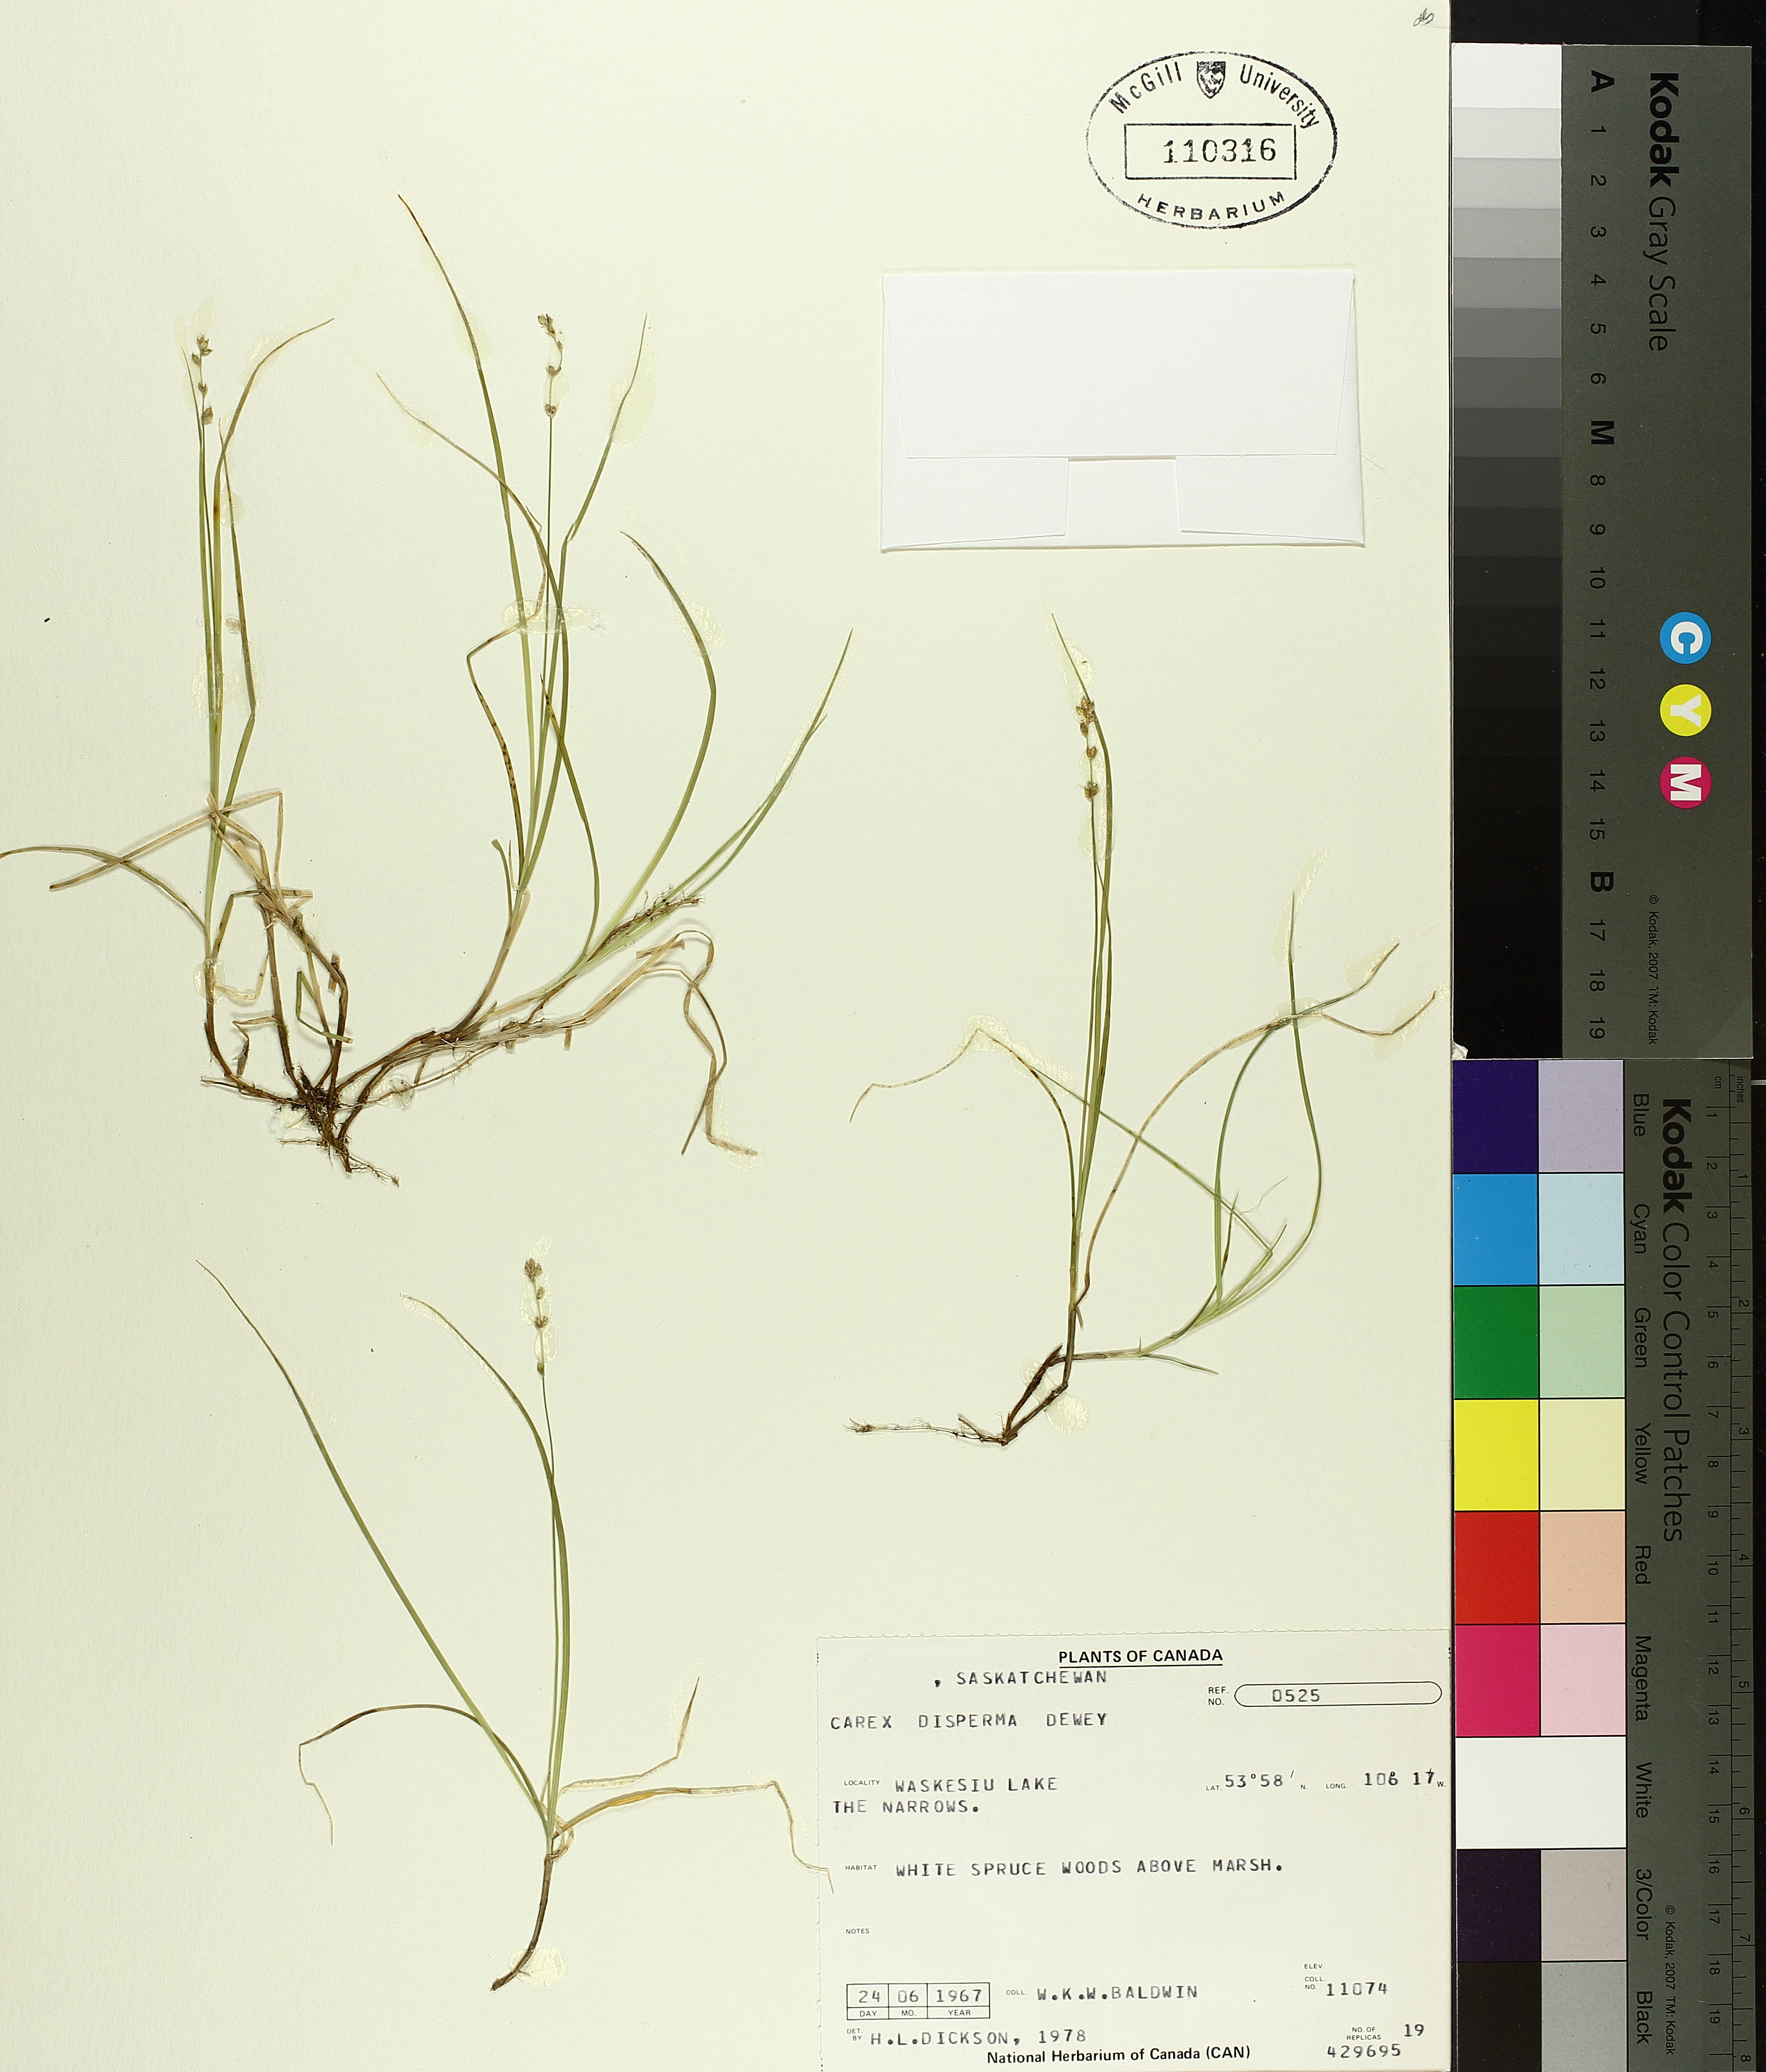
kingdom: Plantae
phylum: Tracheophyta
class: Liliopsida
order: Poales
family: Cyperaceae
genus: Carex
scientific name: Carex disperma
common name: Short-leaved sedge
